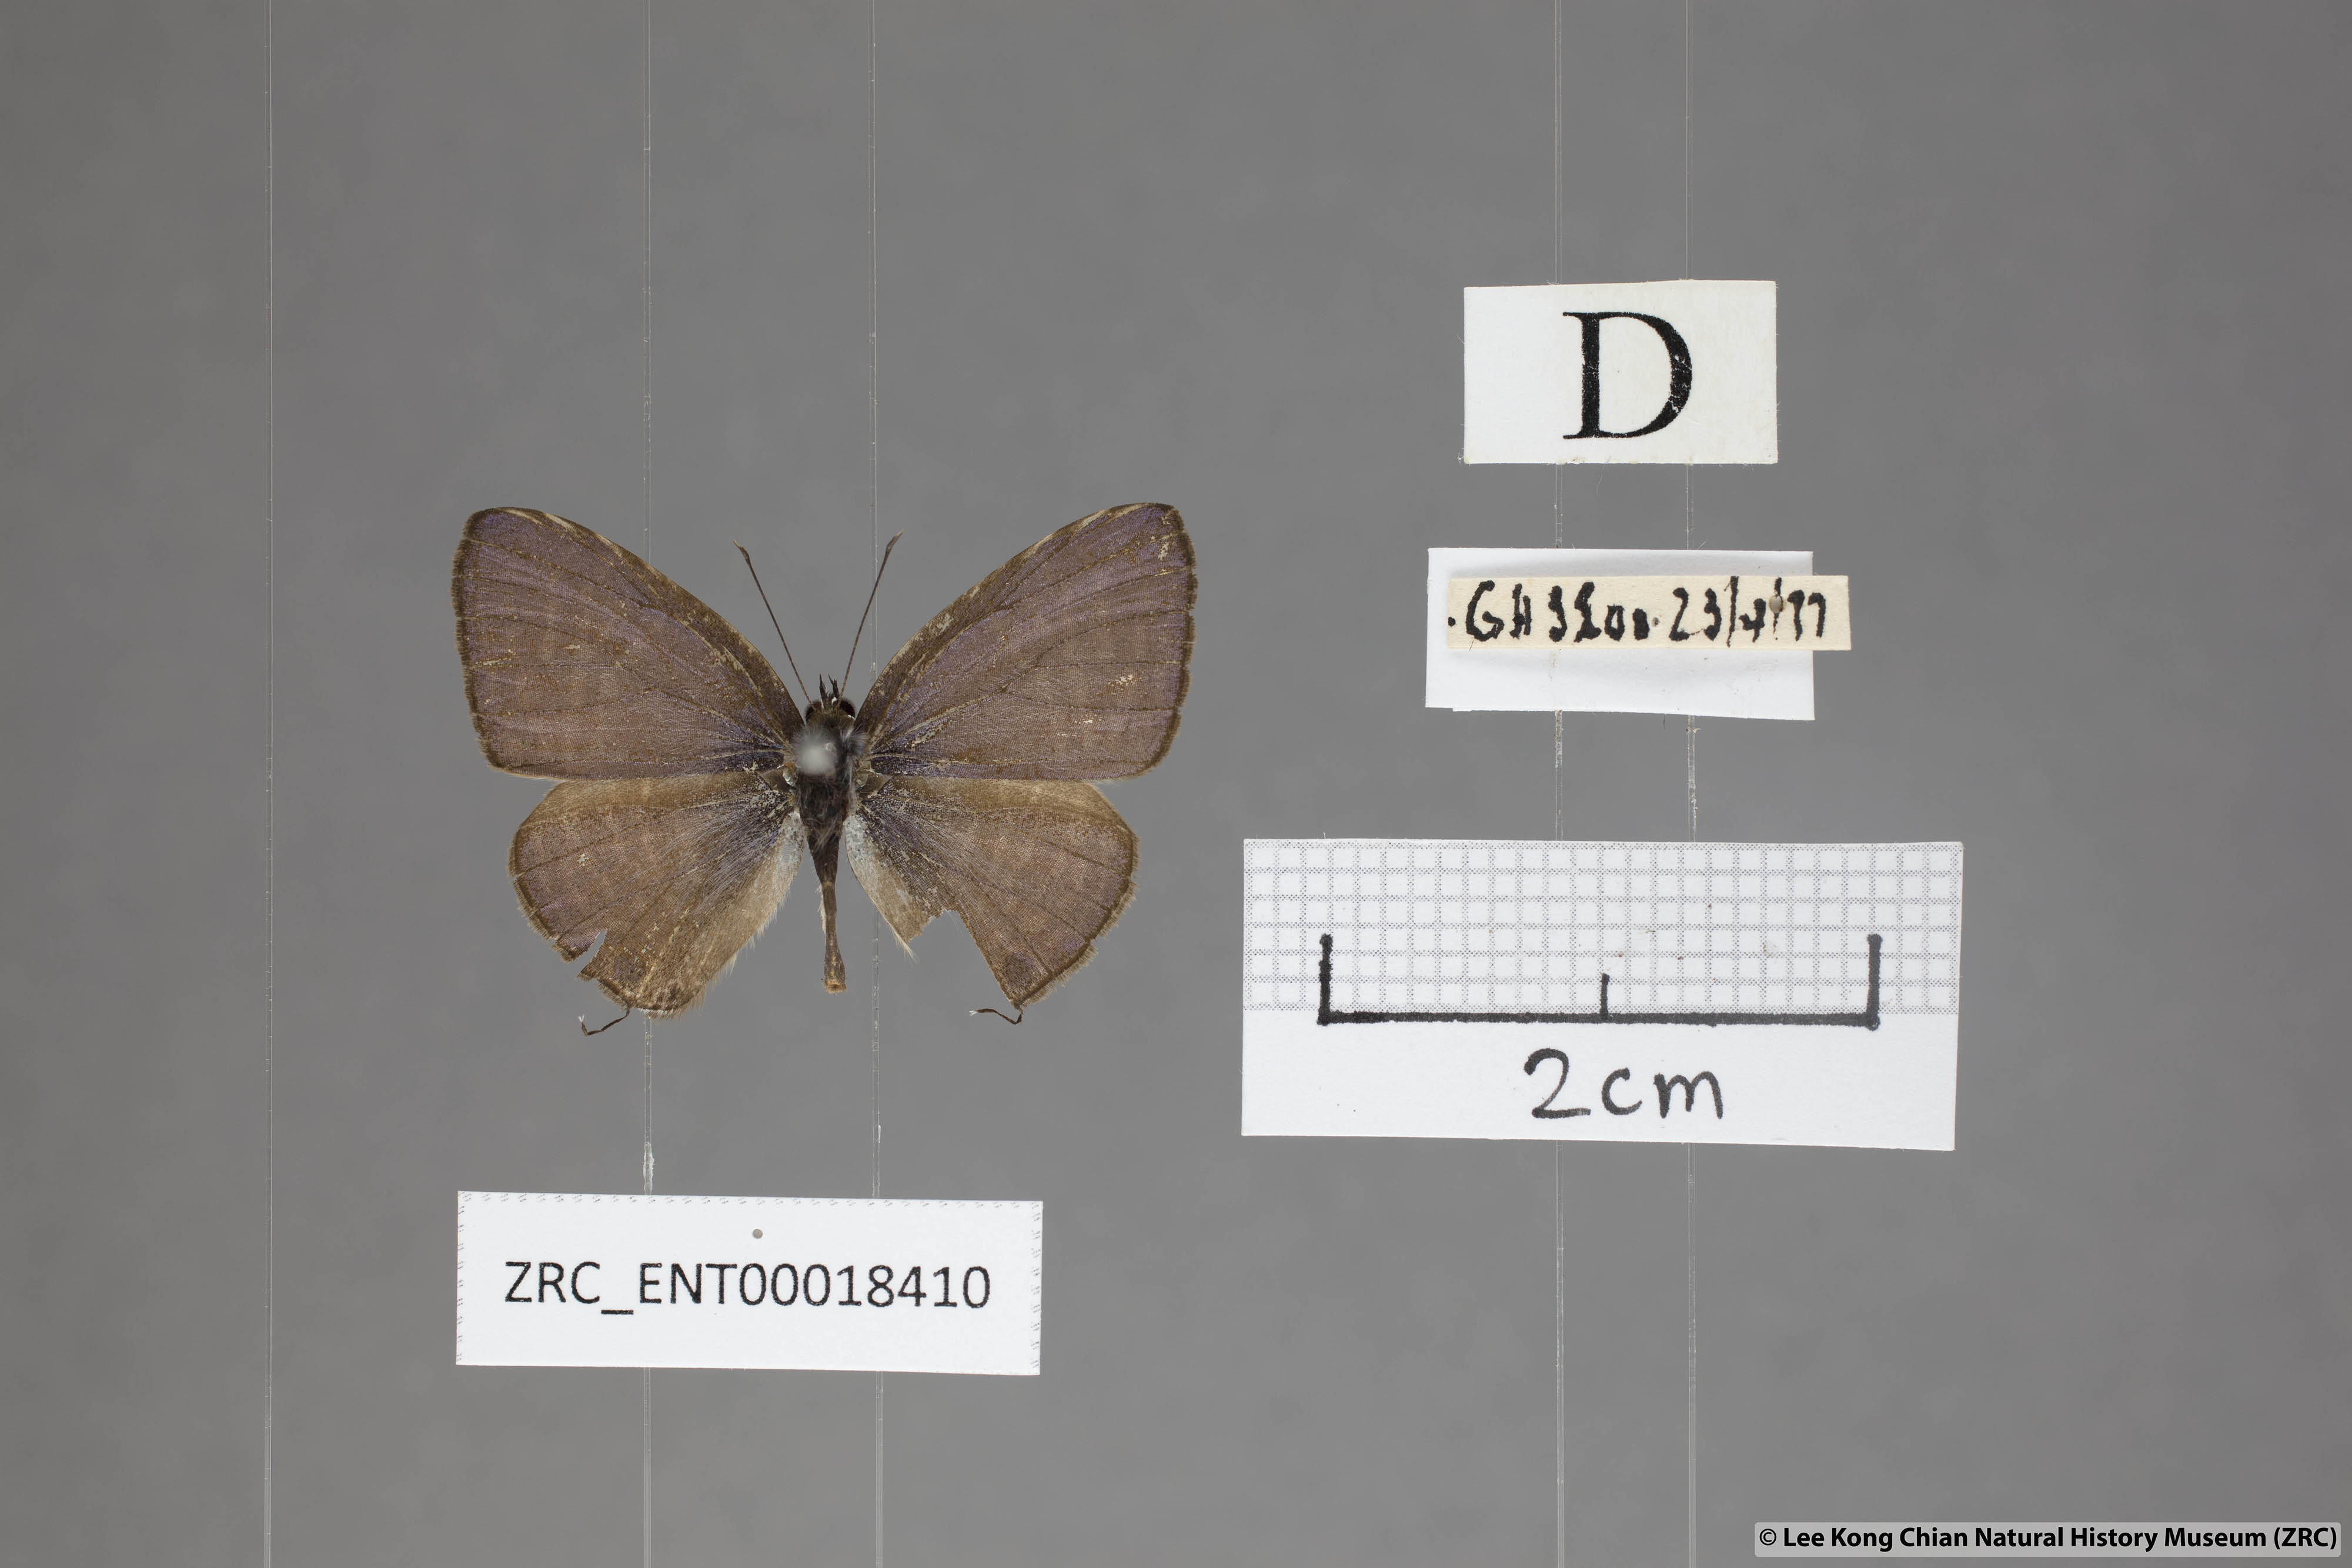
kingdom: Animalia
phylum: Arthropoda
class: Insecta
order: Lepidoptera
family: Lycaenidae
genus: Nacaduba
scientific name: Nacaduba pactolus
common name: Large fourline blue
